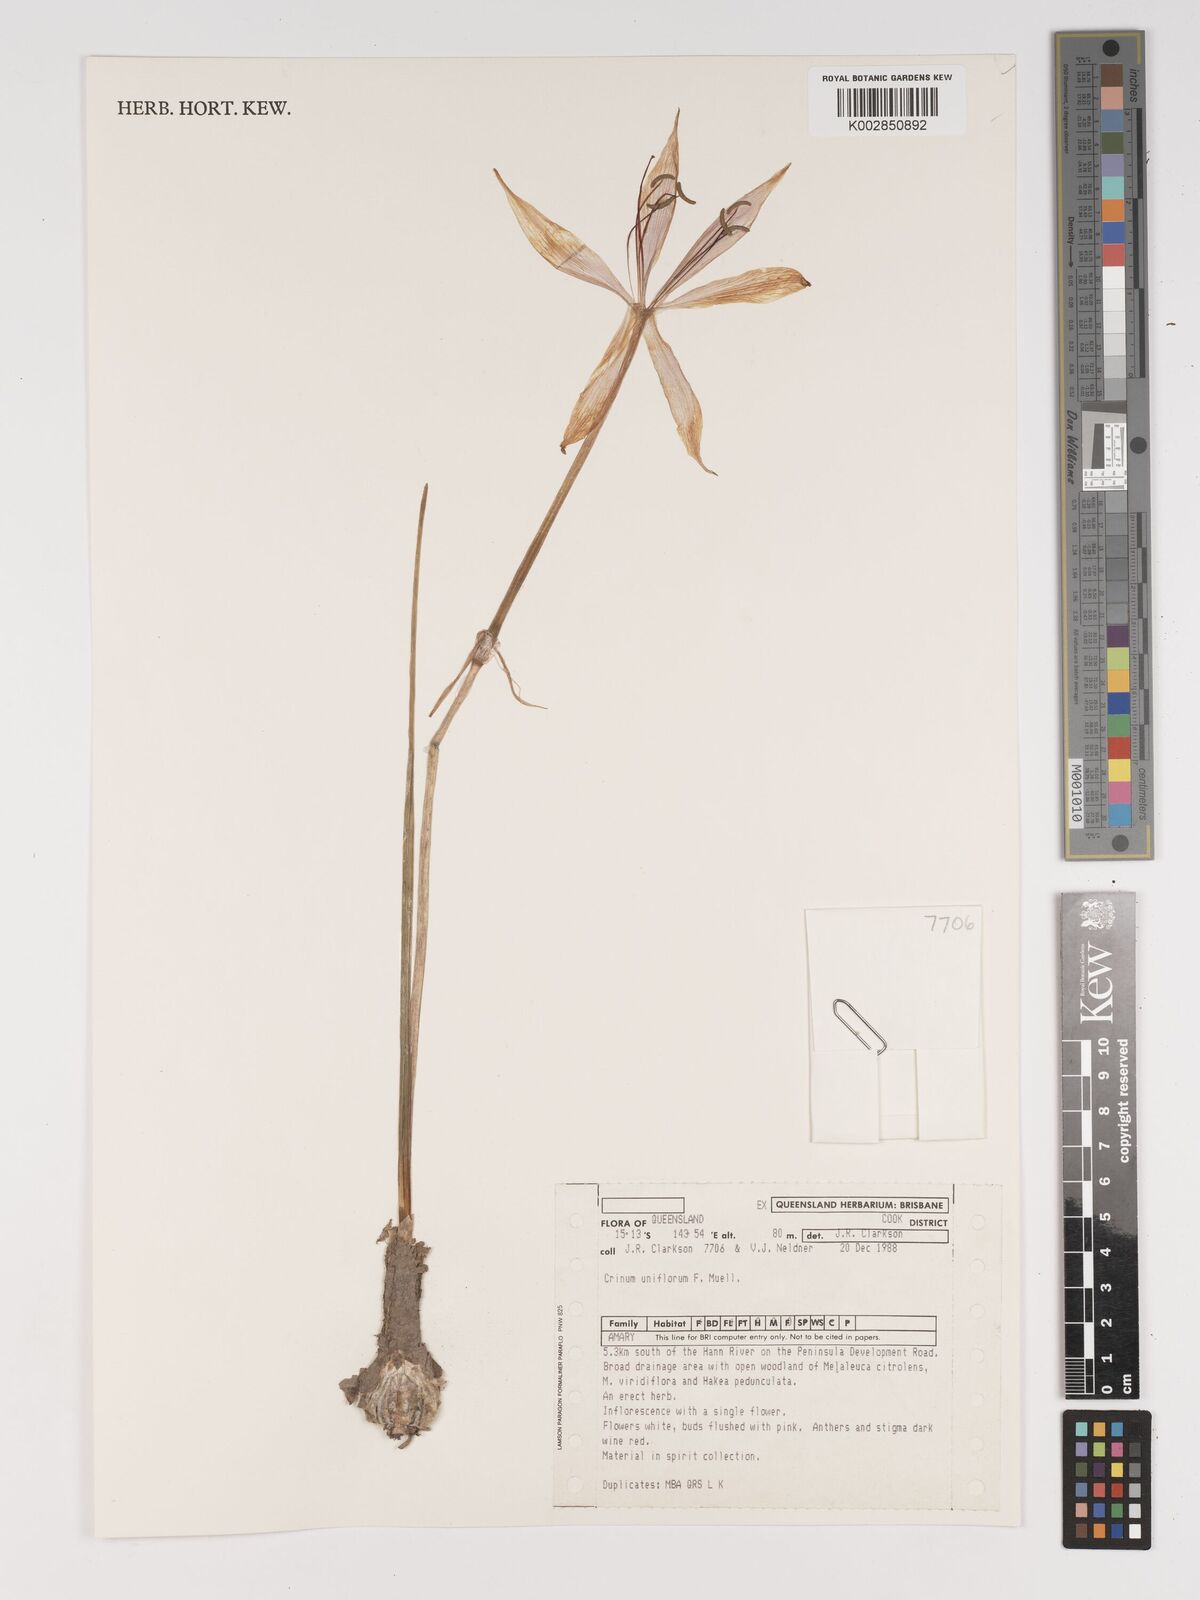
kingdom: Plantae
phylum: Tracheophyta
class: Liliopsida
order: Asparagales
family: Amaryllidaceae
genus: Crinum
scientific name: Crinum uniflorum
